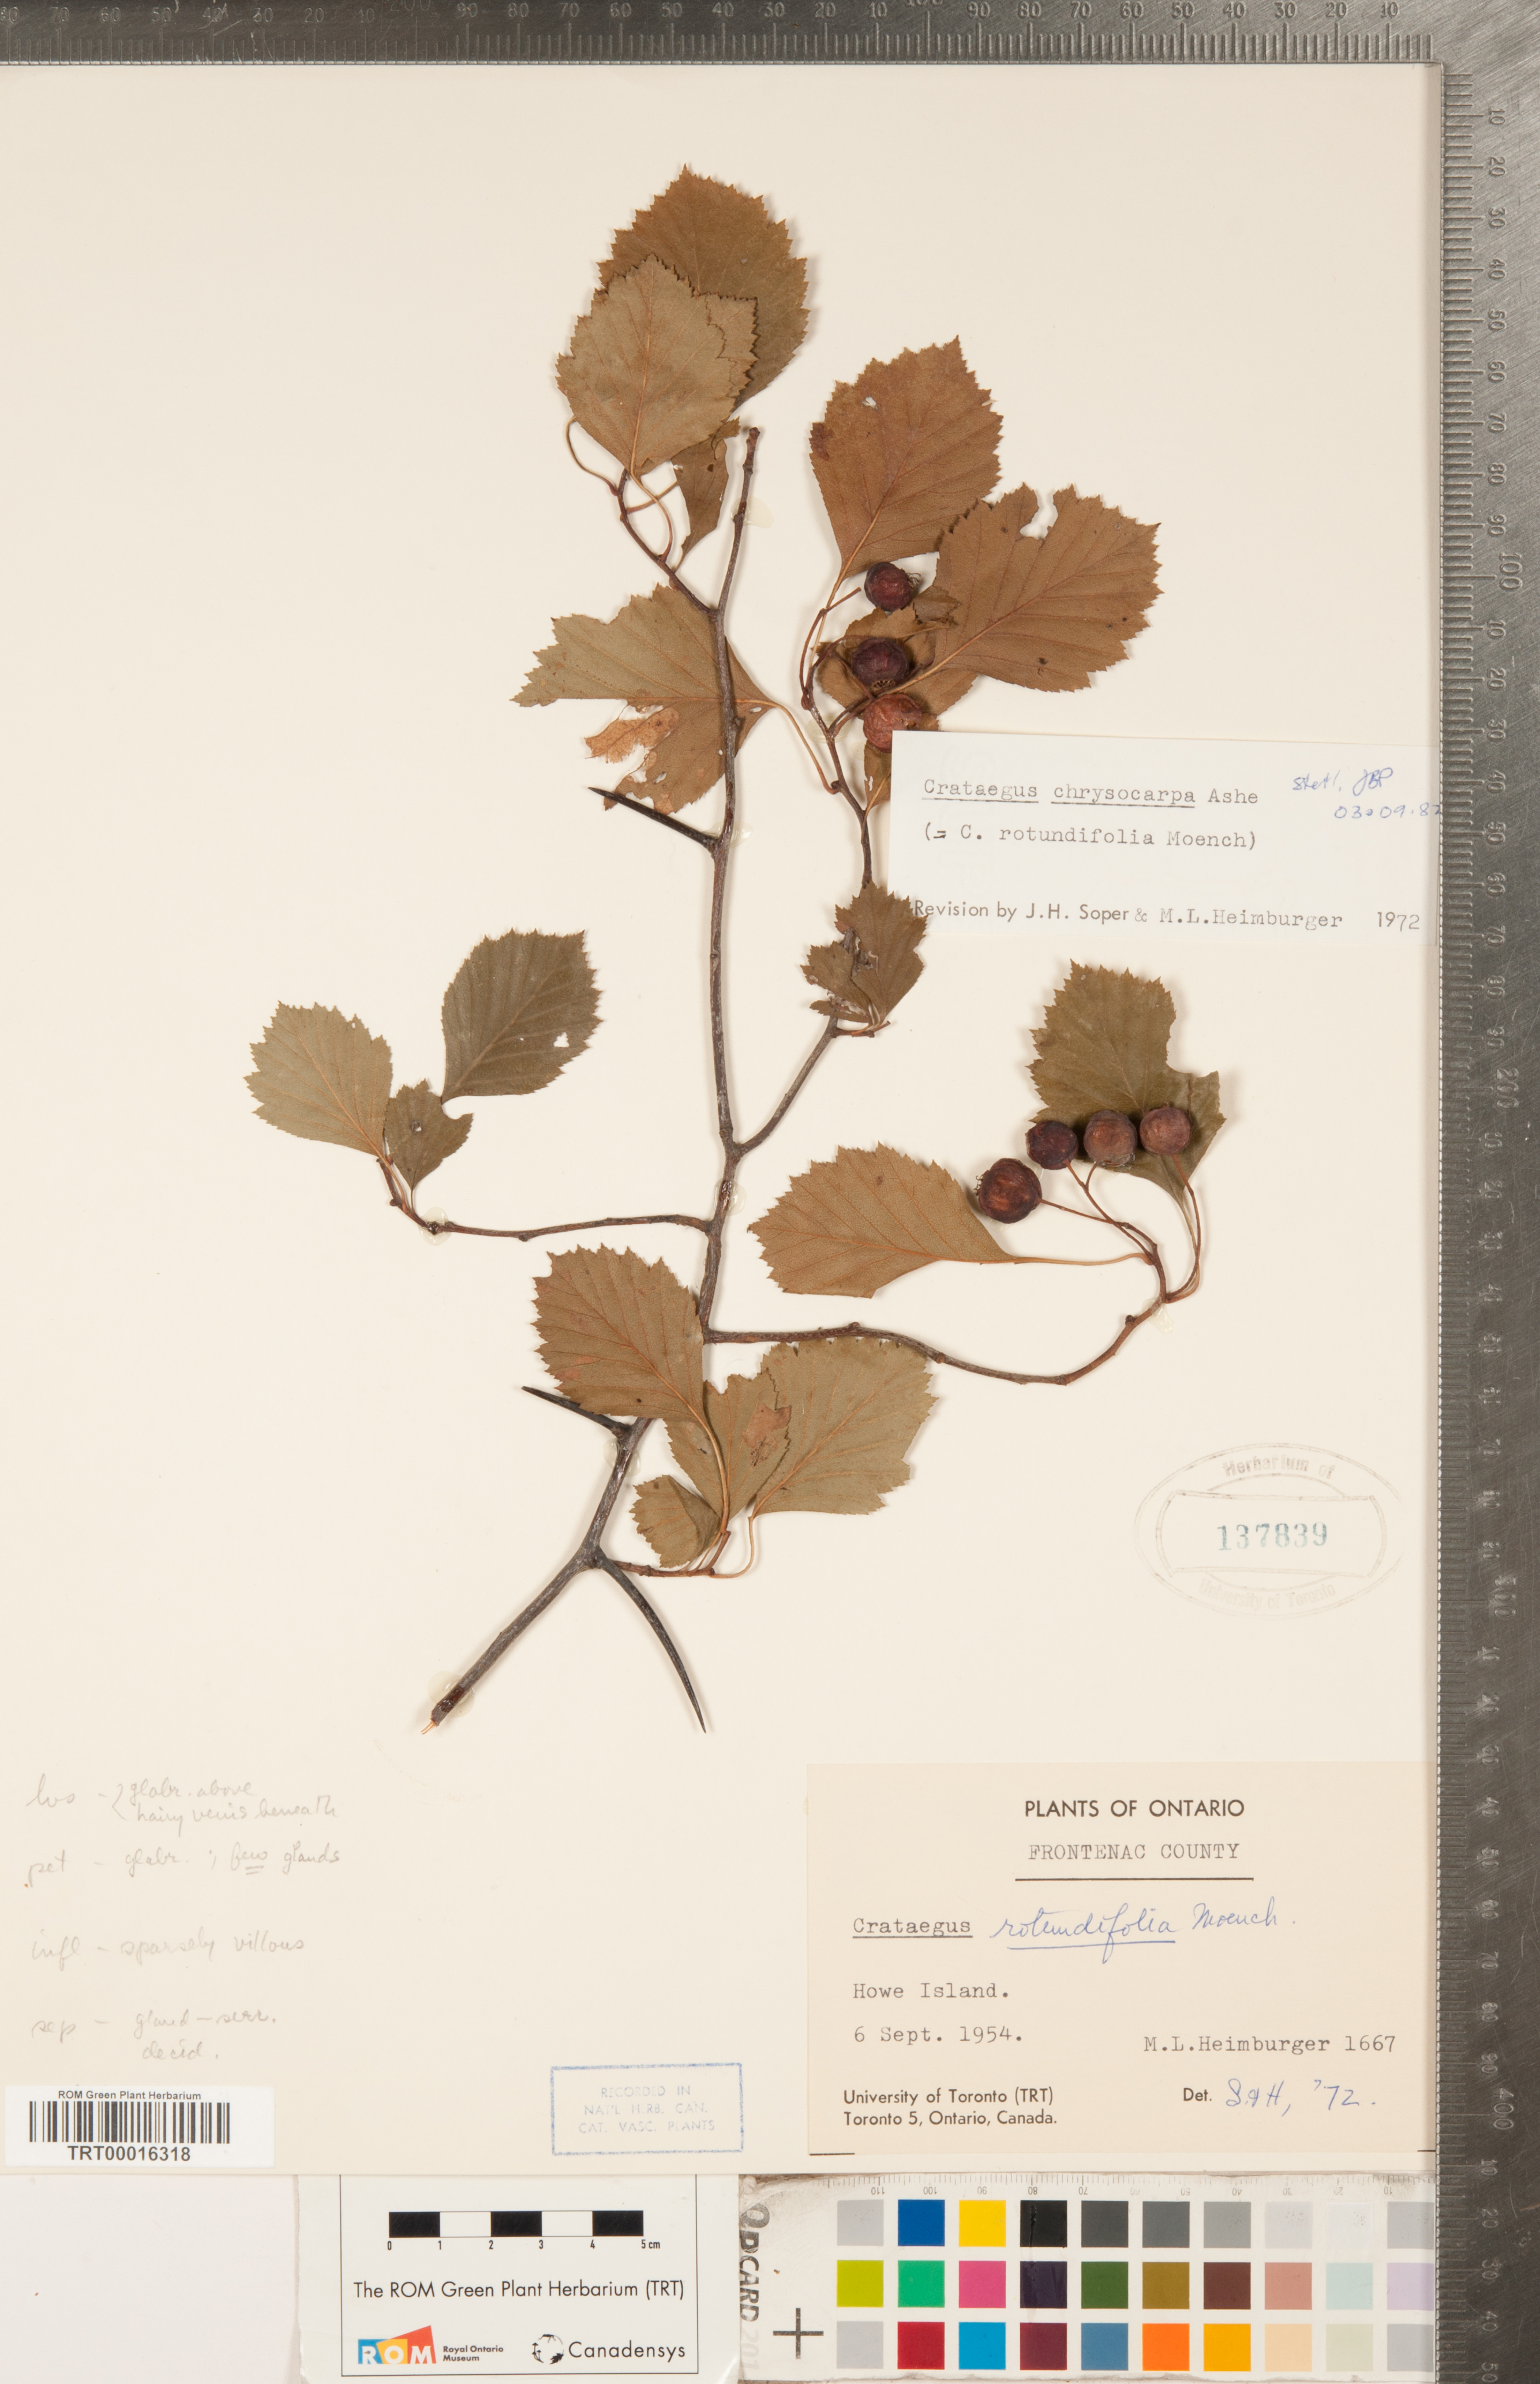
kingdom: Plantae
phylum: Tracheophyta
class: Magnoliopsida
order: Rosales
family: Rosaceae
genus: Crataegus
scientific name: Crataegus chrysocarpa
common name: Fire-berry hawthorn
